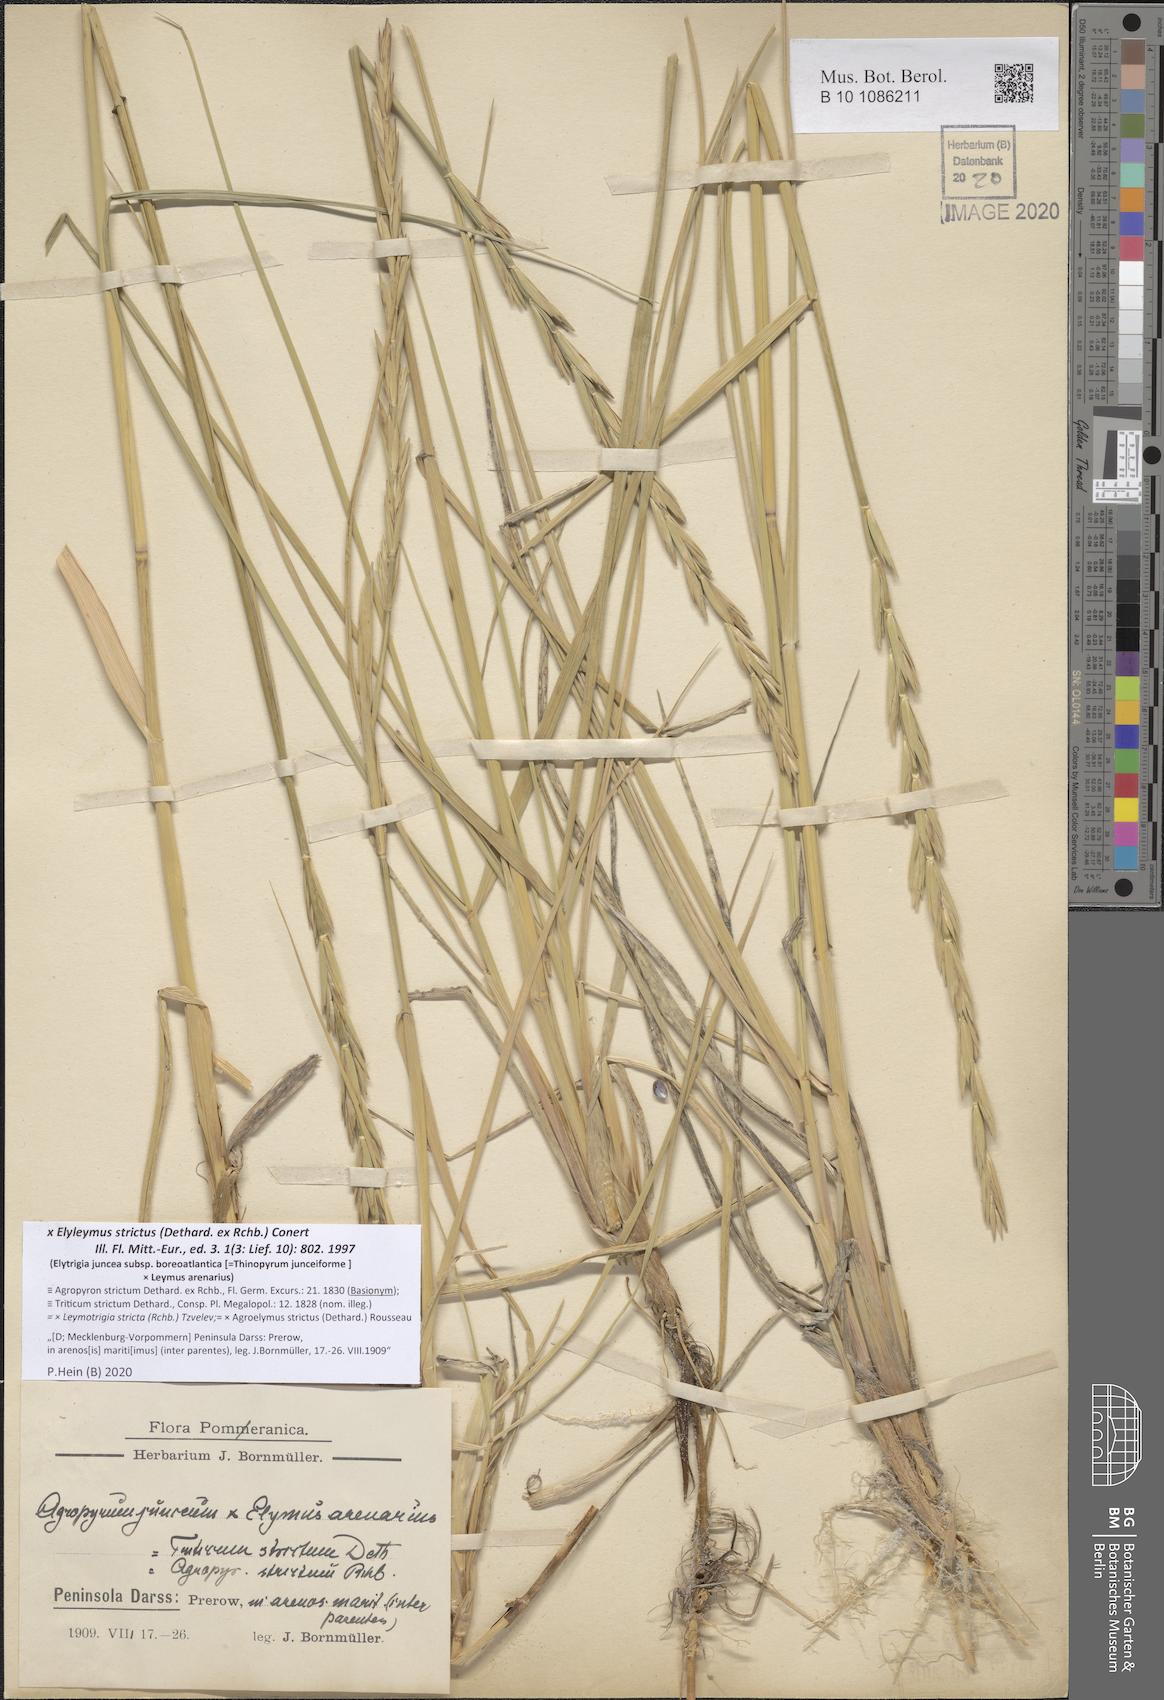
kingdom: Plantae
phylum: Tracheophyta
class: Liliopsida
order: Poales
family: Poaceae
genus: Elyleymus
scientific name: Elyleymus strictus
